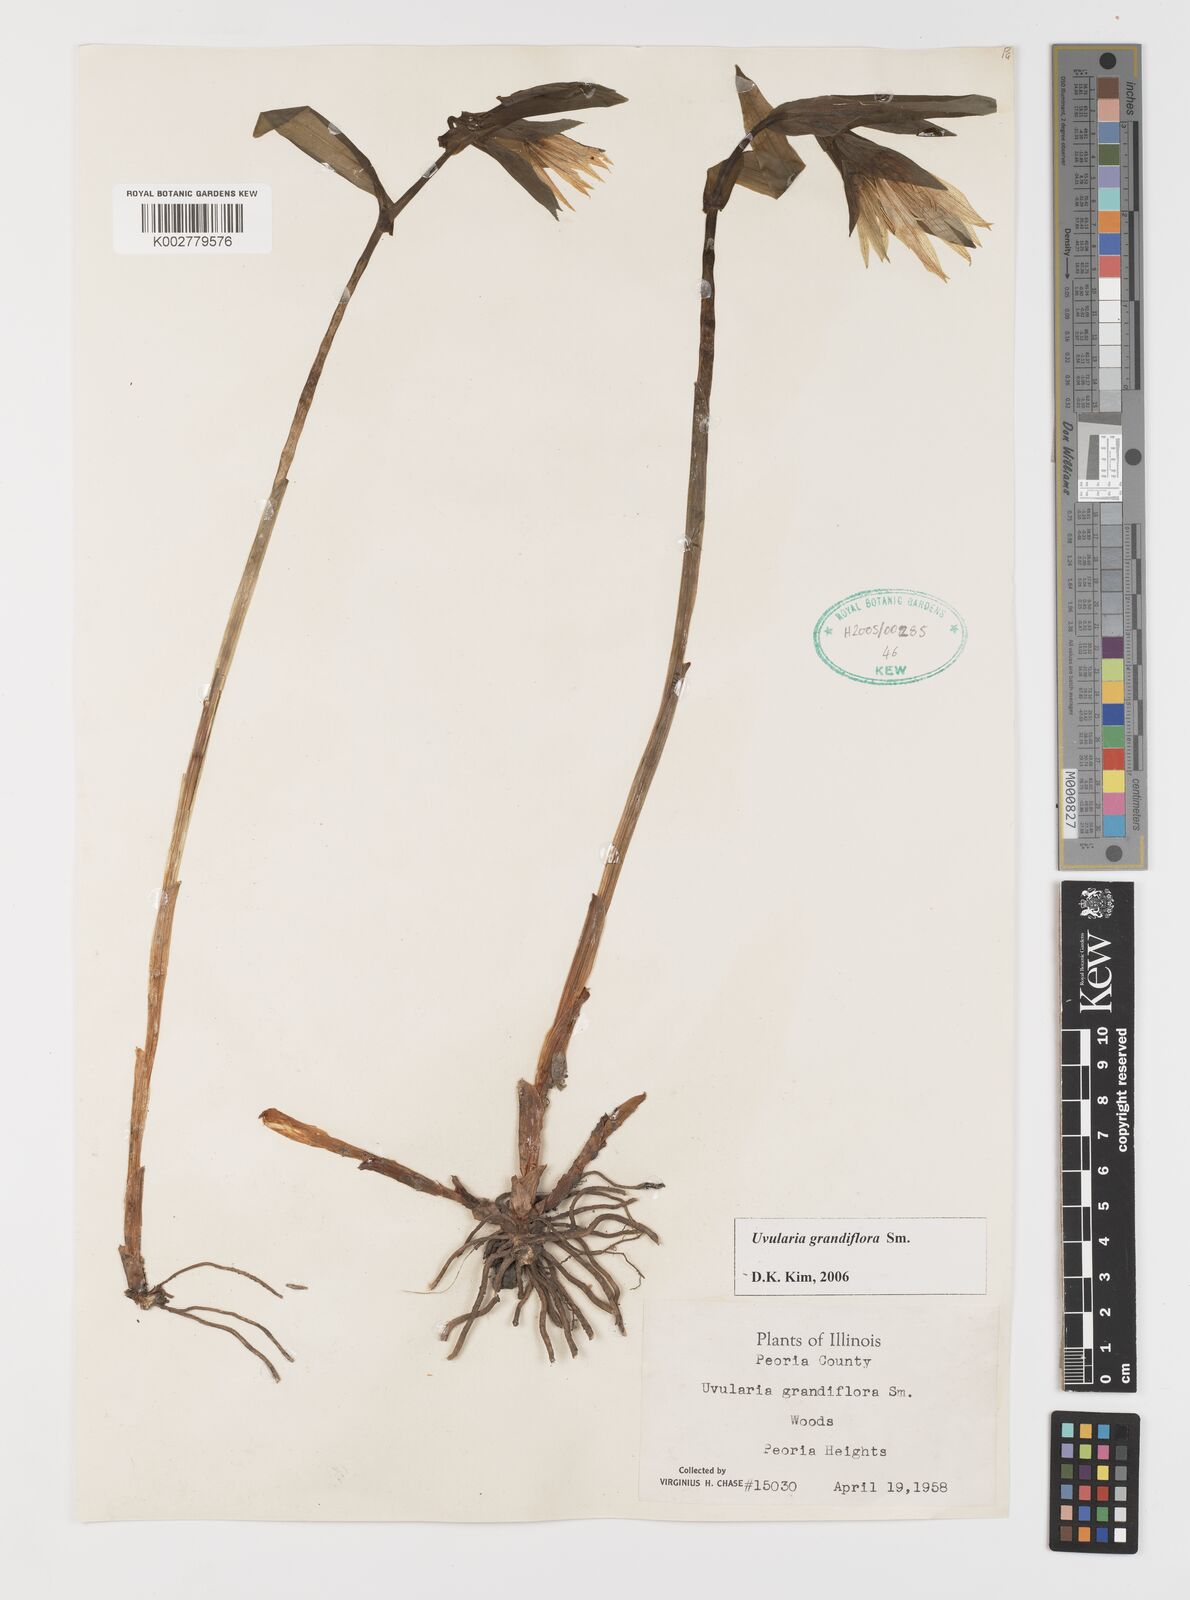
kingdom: Plantae
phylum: Tracheophyta
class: Liliopsida
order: Liliales
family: Colchicaceae
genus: Uvularia
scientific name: Uvularia grandiflora
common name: Bellwort
